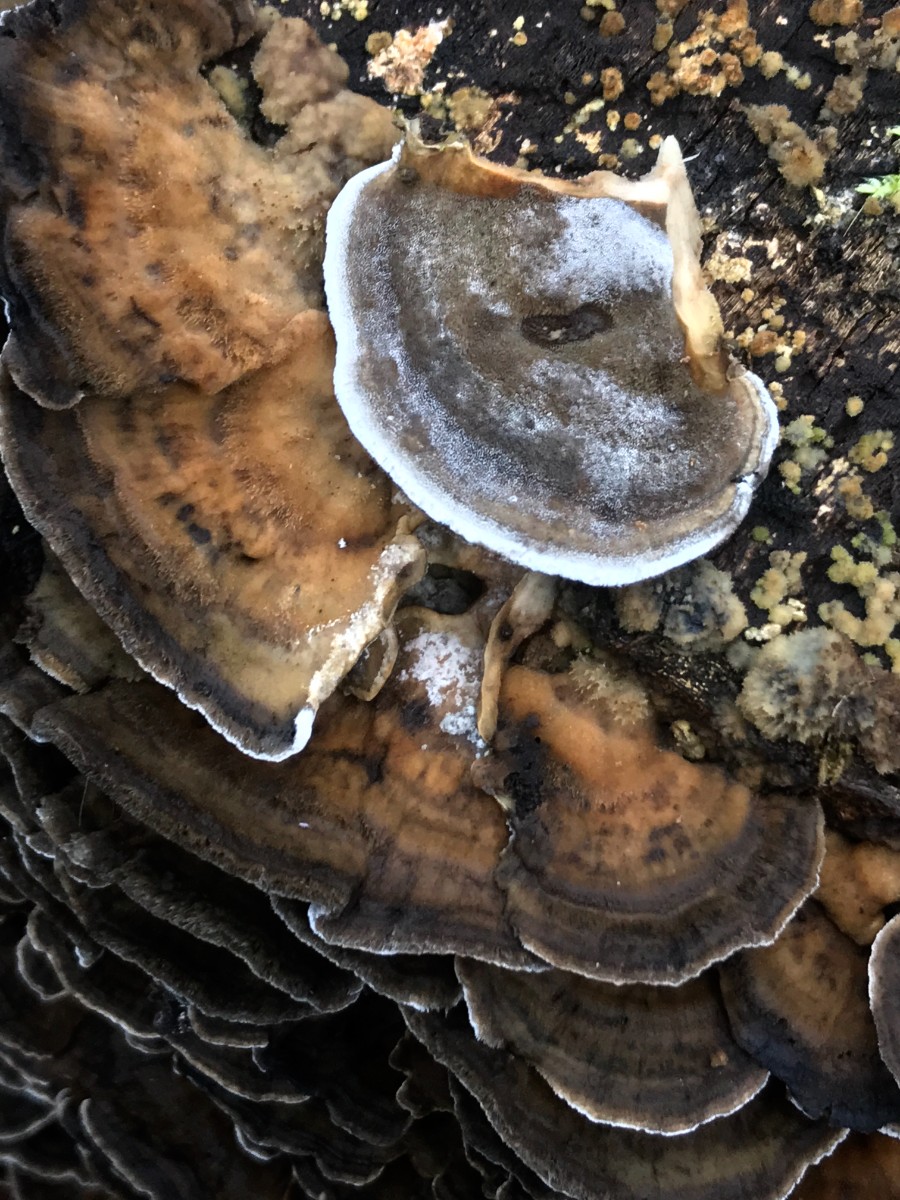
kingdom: Fungi
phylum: Basidiomycota
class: Agaricomycetes
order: Polyporales
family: Phanerochaetaceae
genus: Bjerkandera
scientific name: Bjerkandera adusta
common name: sveden sodporesvamp
